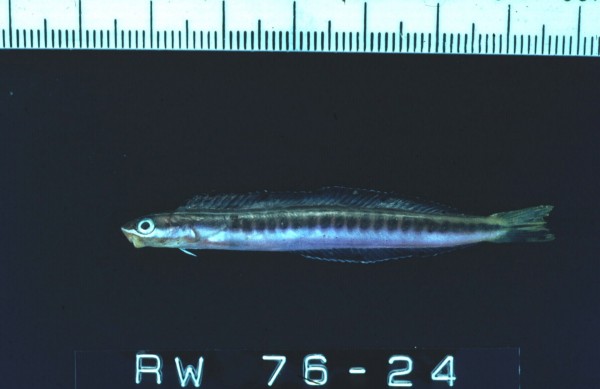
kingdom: Animalia
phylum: Chordata
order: Perciformes
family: Blenniidae
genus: Plagiotremus
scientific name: Plagiotremus tapeinosoma
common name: Hit and run blenny
